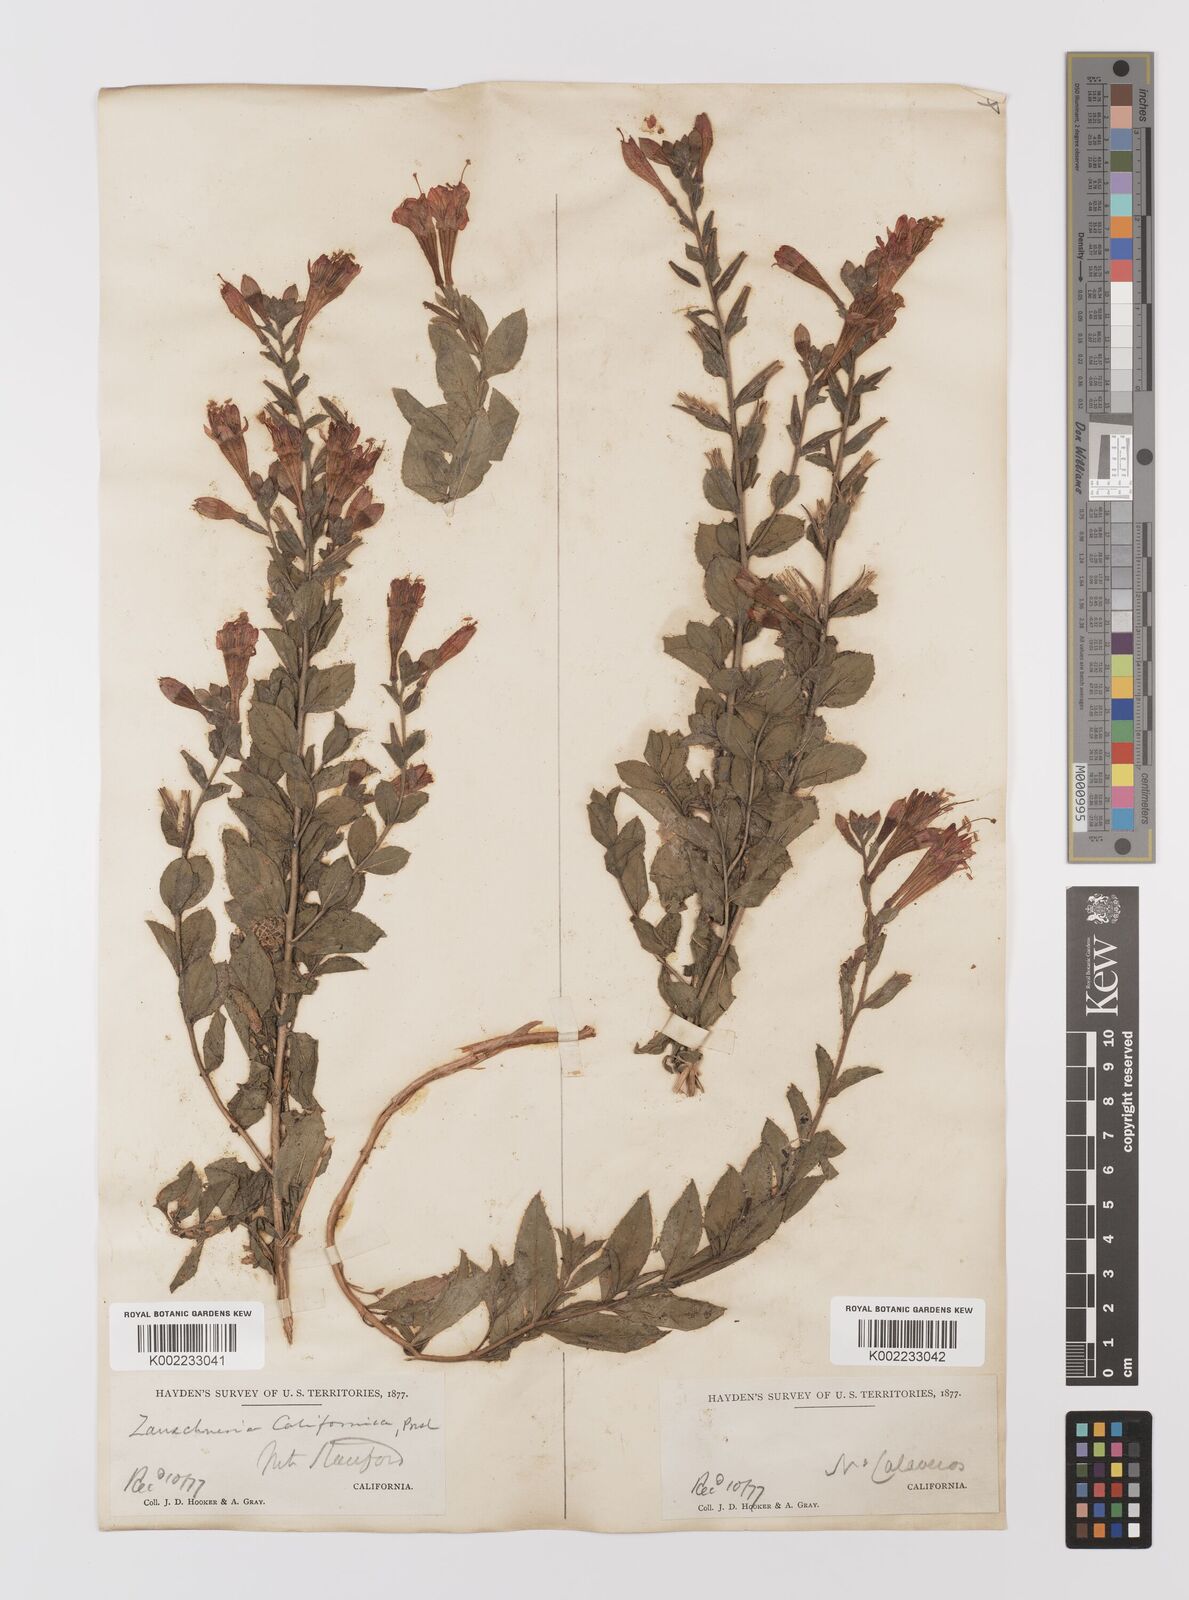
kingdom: Plantae
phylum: Tracheophyta
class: Magnoliopsida
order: Myrtales
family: Onagraceae
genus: Epilobium
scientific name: Epilobium
